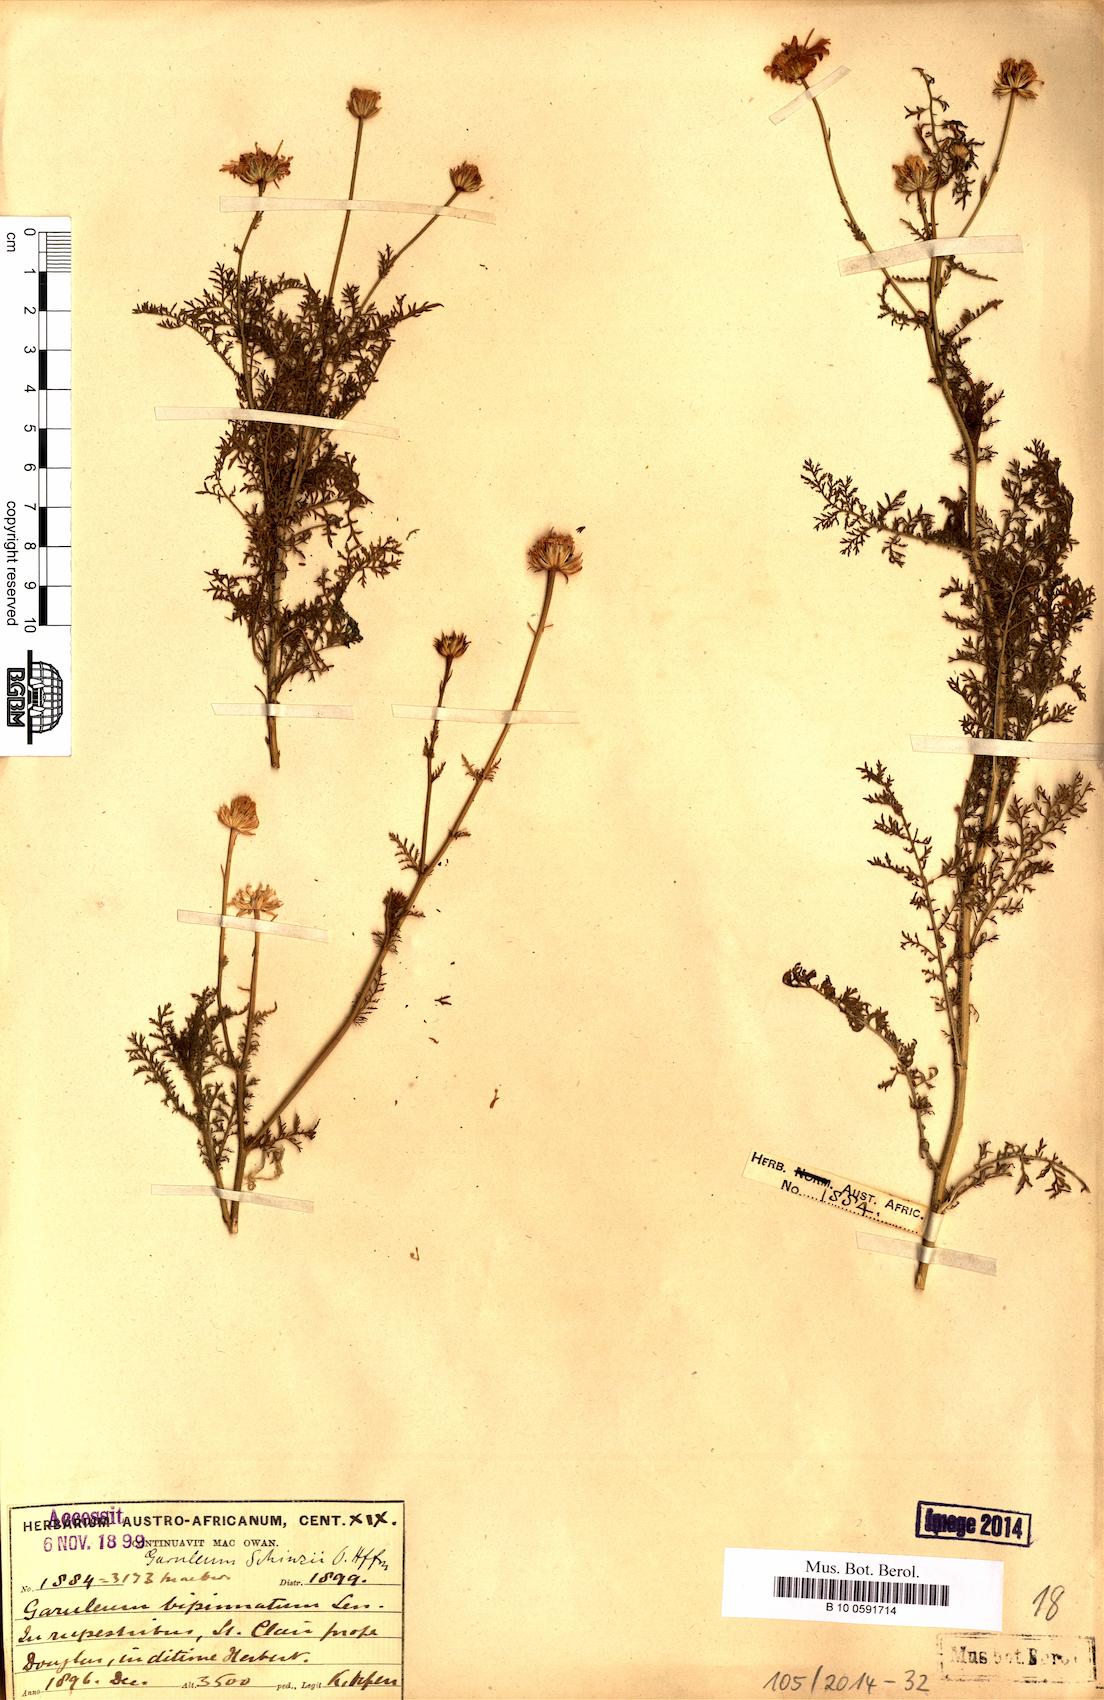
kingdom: Plantae
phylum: Tracheophyta
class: Magnoliopsida
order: Asterales
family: Asteraceae
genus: Garuleum
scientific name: Garuleum schinzii
